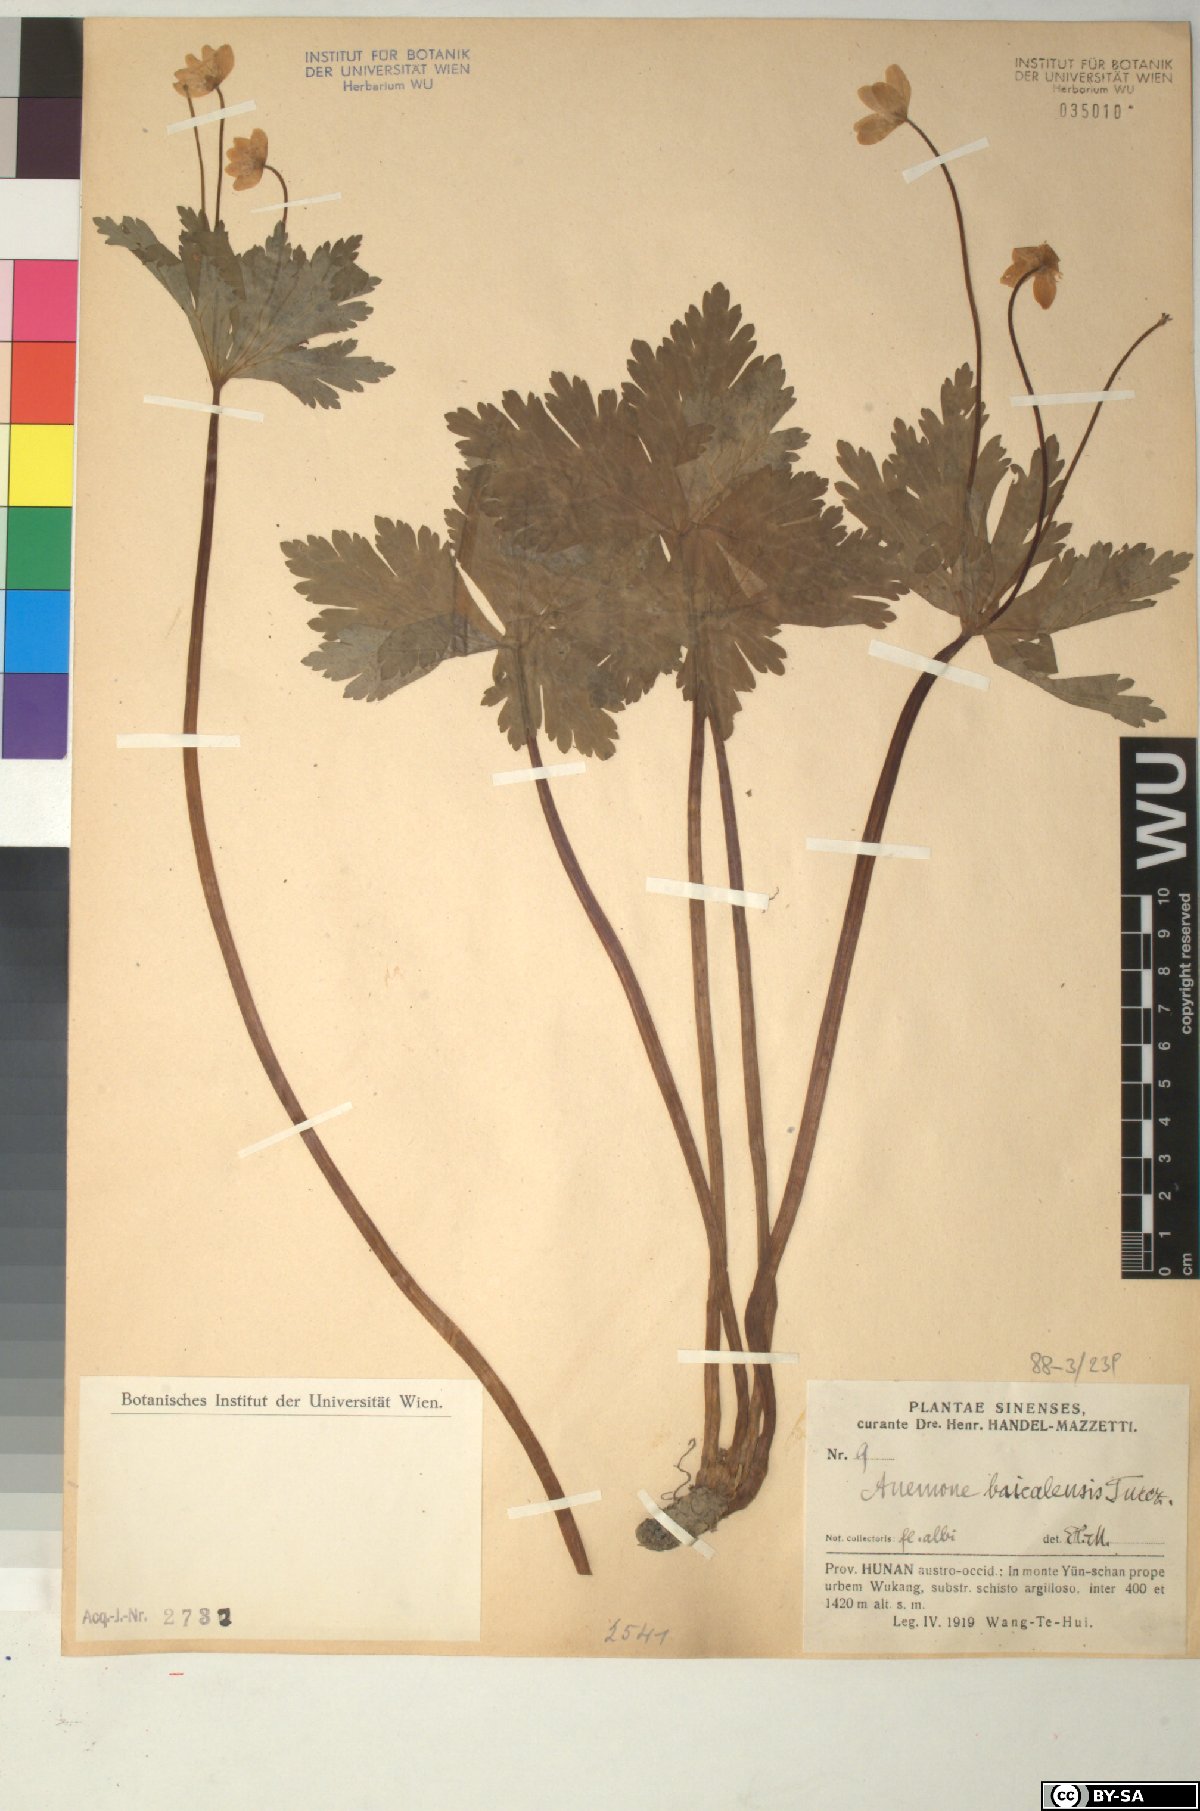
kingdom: Plantae
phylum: Tracheophyta
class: Magnoliopsida
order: Ranunculales
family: Ranunculaceae
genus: Anemonastrum
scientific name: Anemonastrum baicalense
